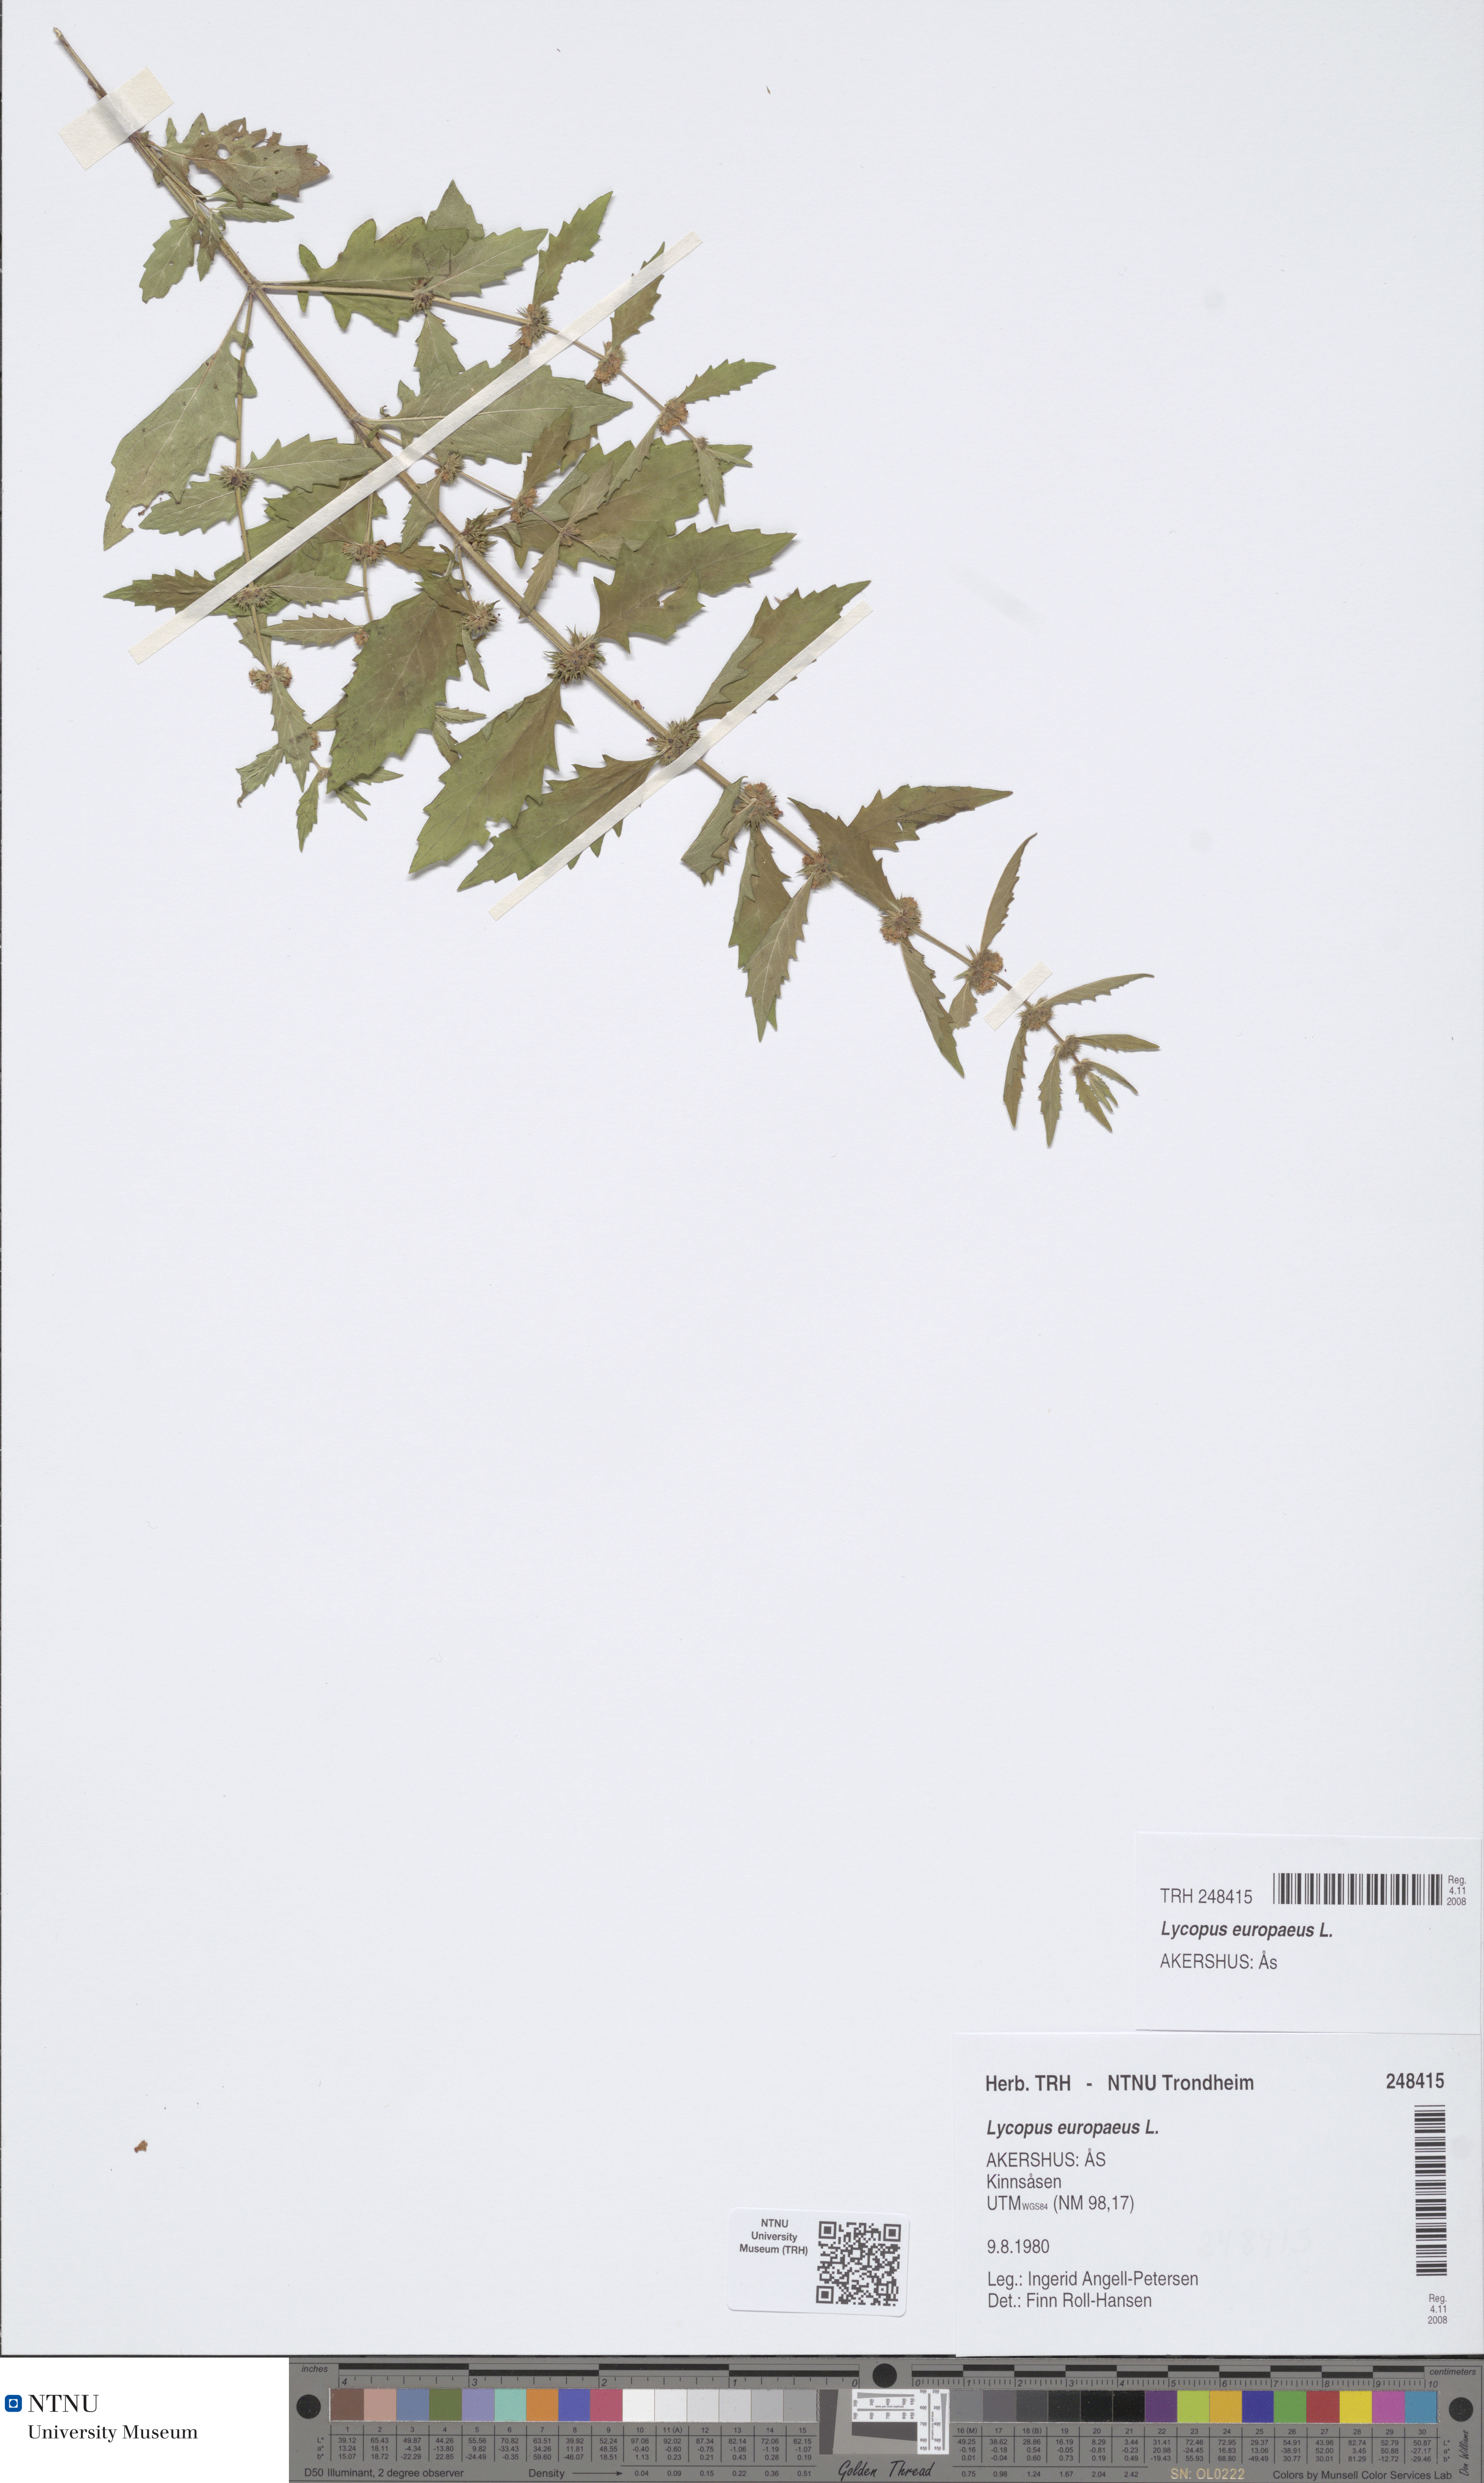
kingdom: Plantae
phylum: Tracheophyta
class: Magnoliopsida
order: Lamiales
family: Lamiaceae
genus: Lycopus
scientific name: Lycopus europaeus
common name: European bugleweed
